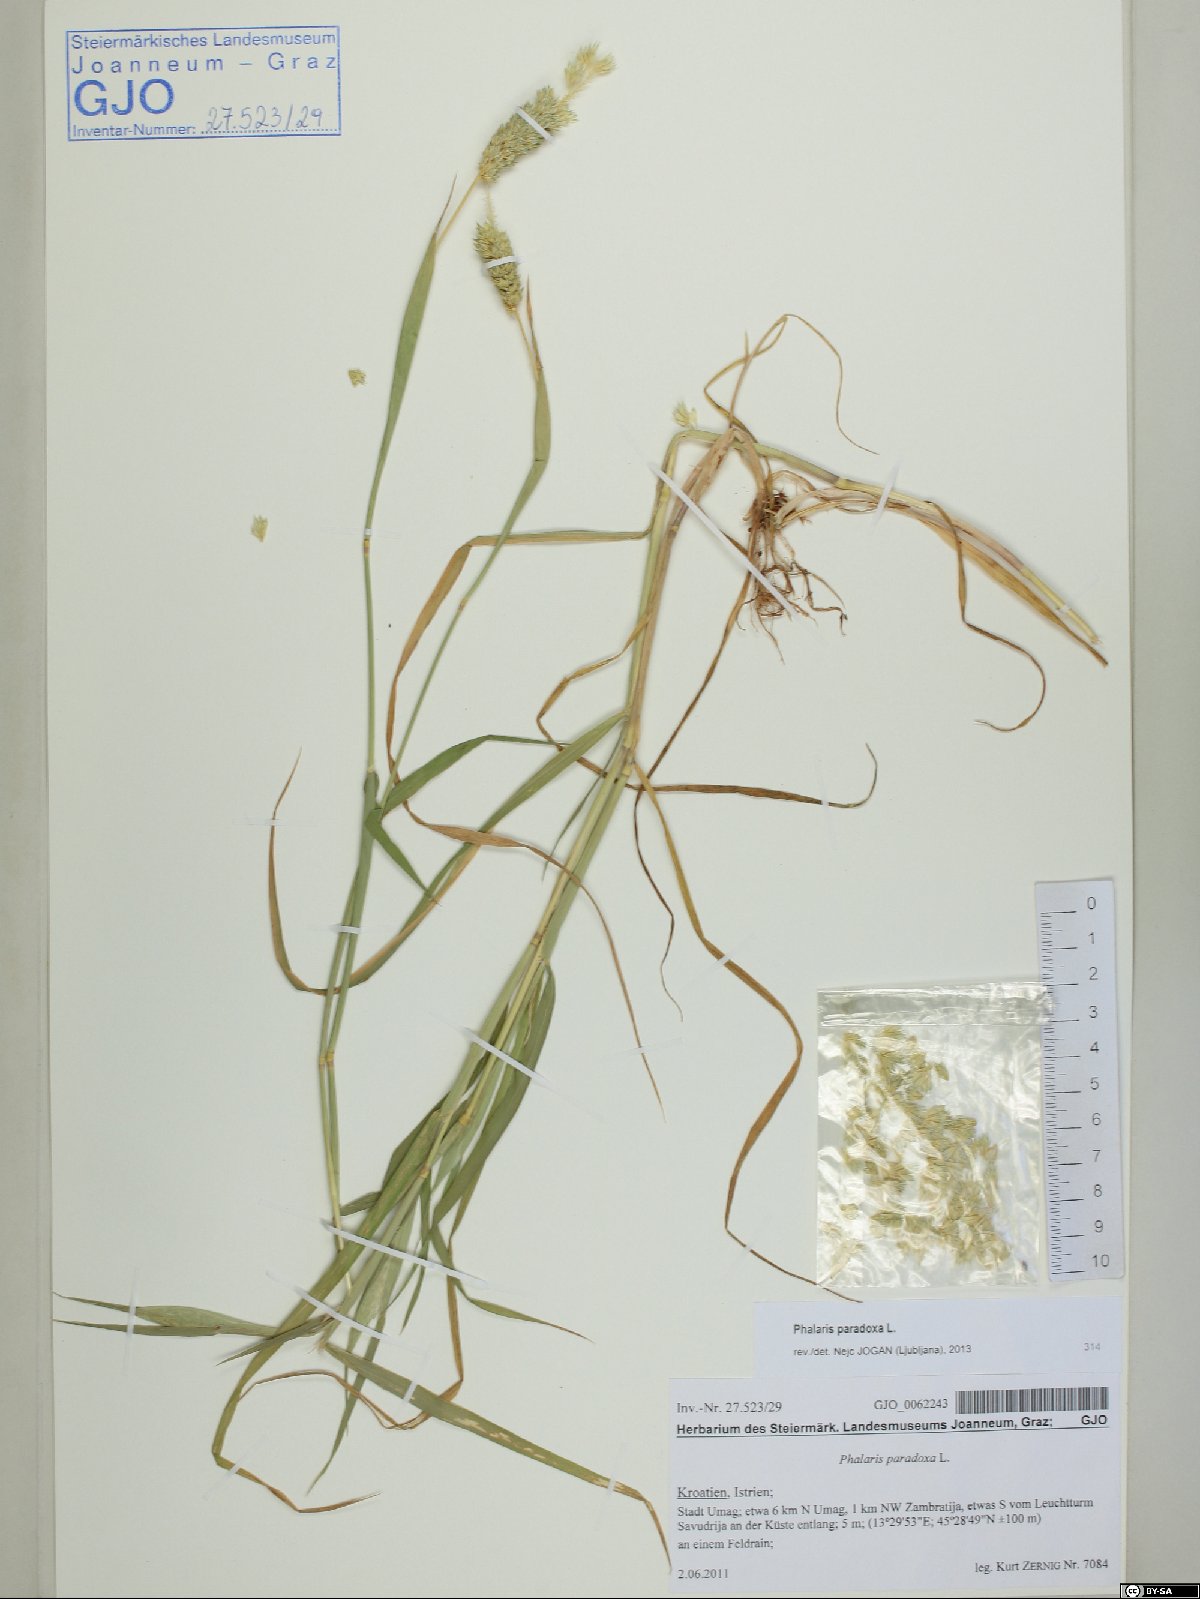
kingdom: Plantae
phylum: Tracheophyta
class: Liliopsida
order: Poales
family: Poaceae
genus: Phalaris
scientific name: Phalaris paradoxa
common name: Awned canary-grass
